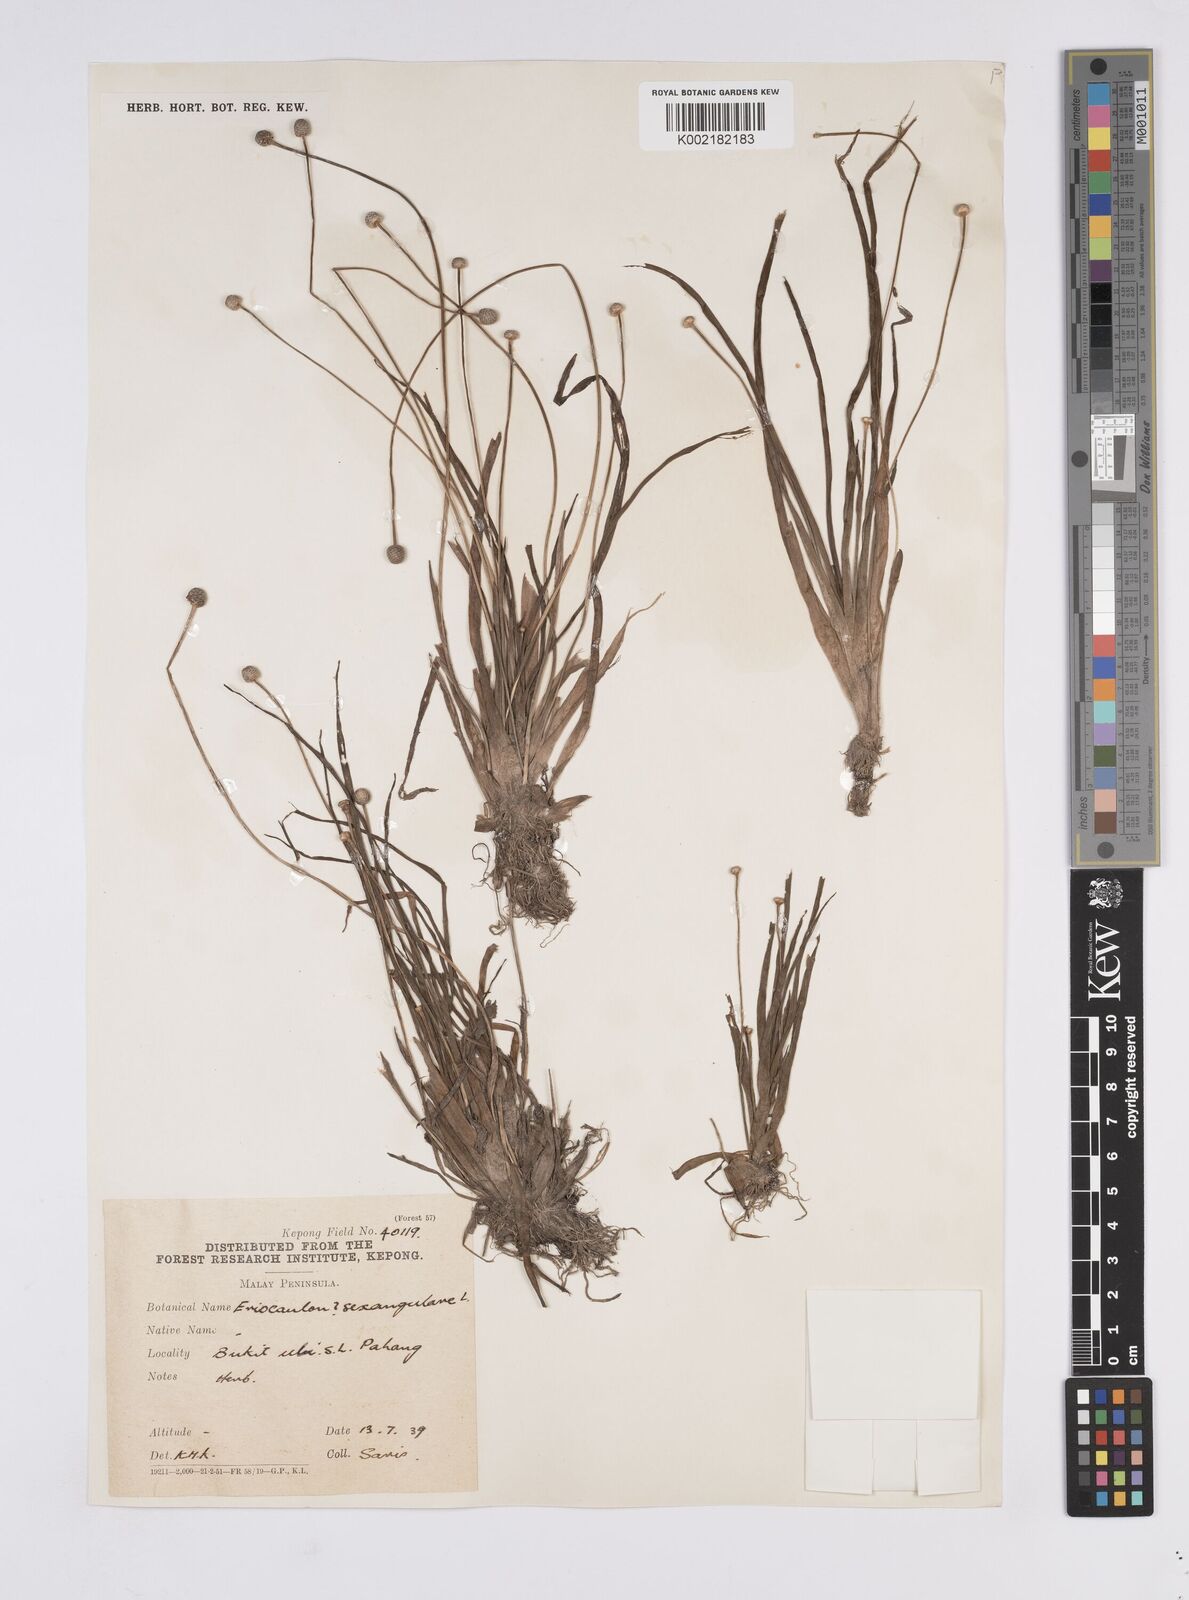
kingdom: Plantae
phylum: Tracheophyta
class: Liliopsida
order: Poales
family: Eriocaulaceae
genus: Eriocaulon
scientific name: Eriocaulon sexangulare
